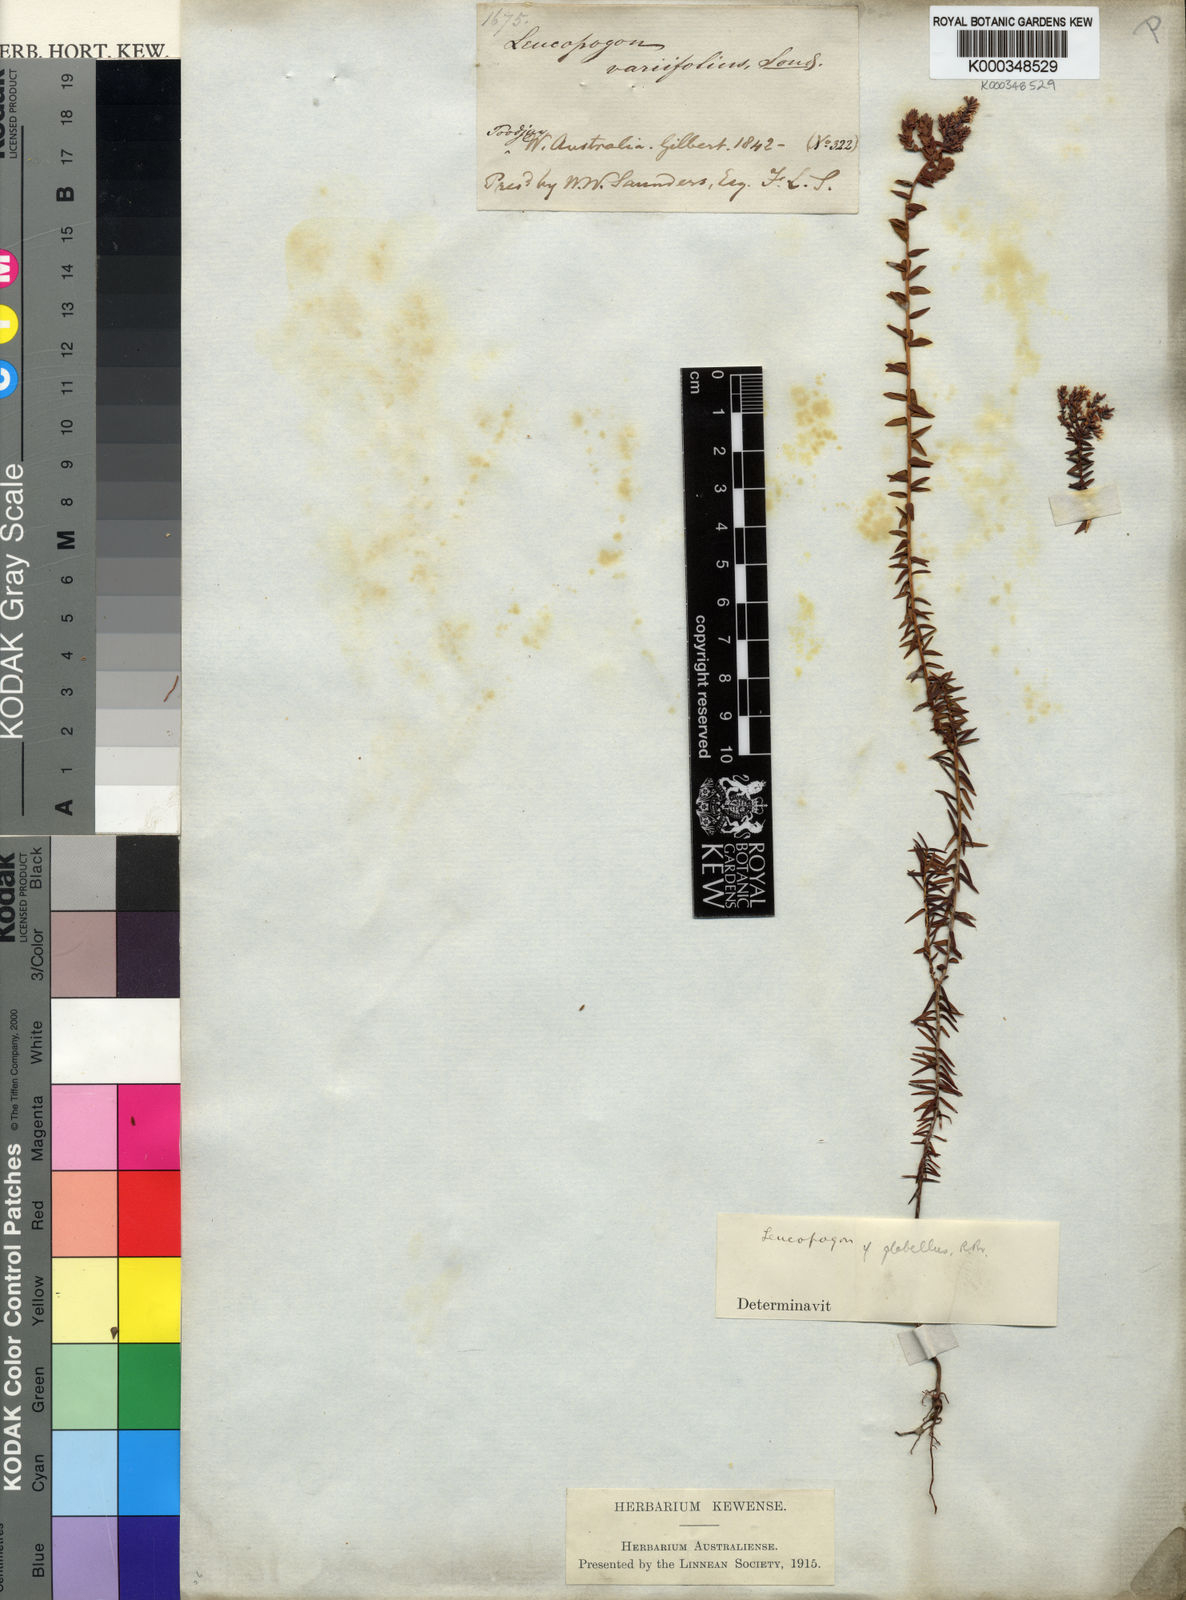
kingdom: Plantae
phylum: Tracheophyta
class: Magnoliopsida
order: Ericales
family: Ericaceae
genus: Leucopogon
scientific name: Leucopogon glabellus
